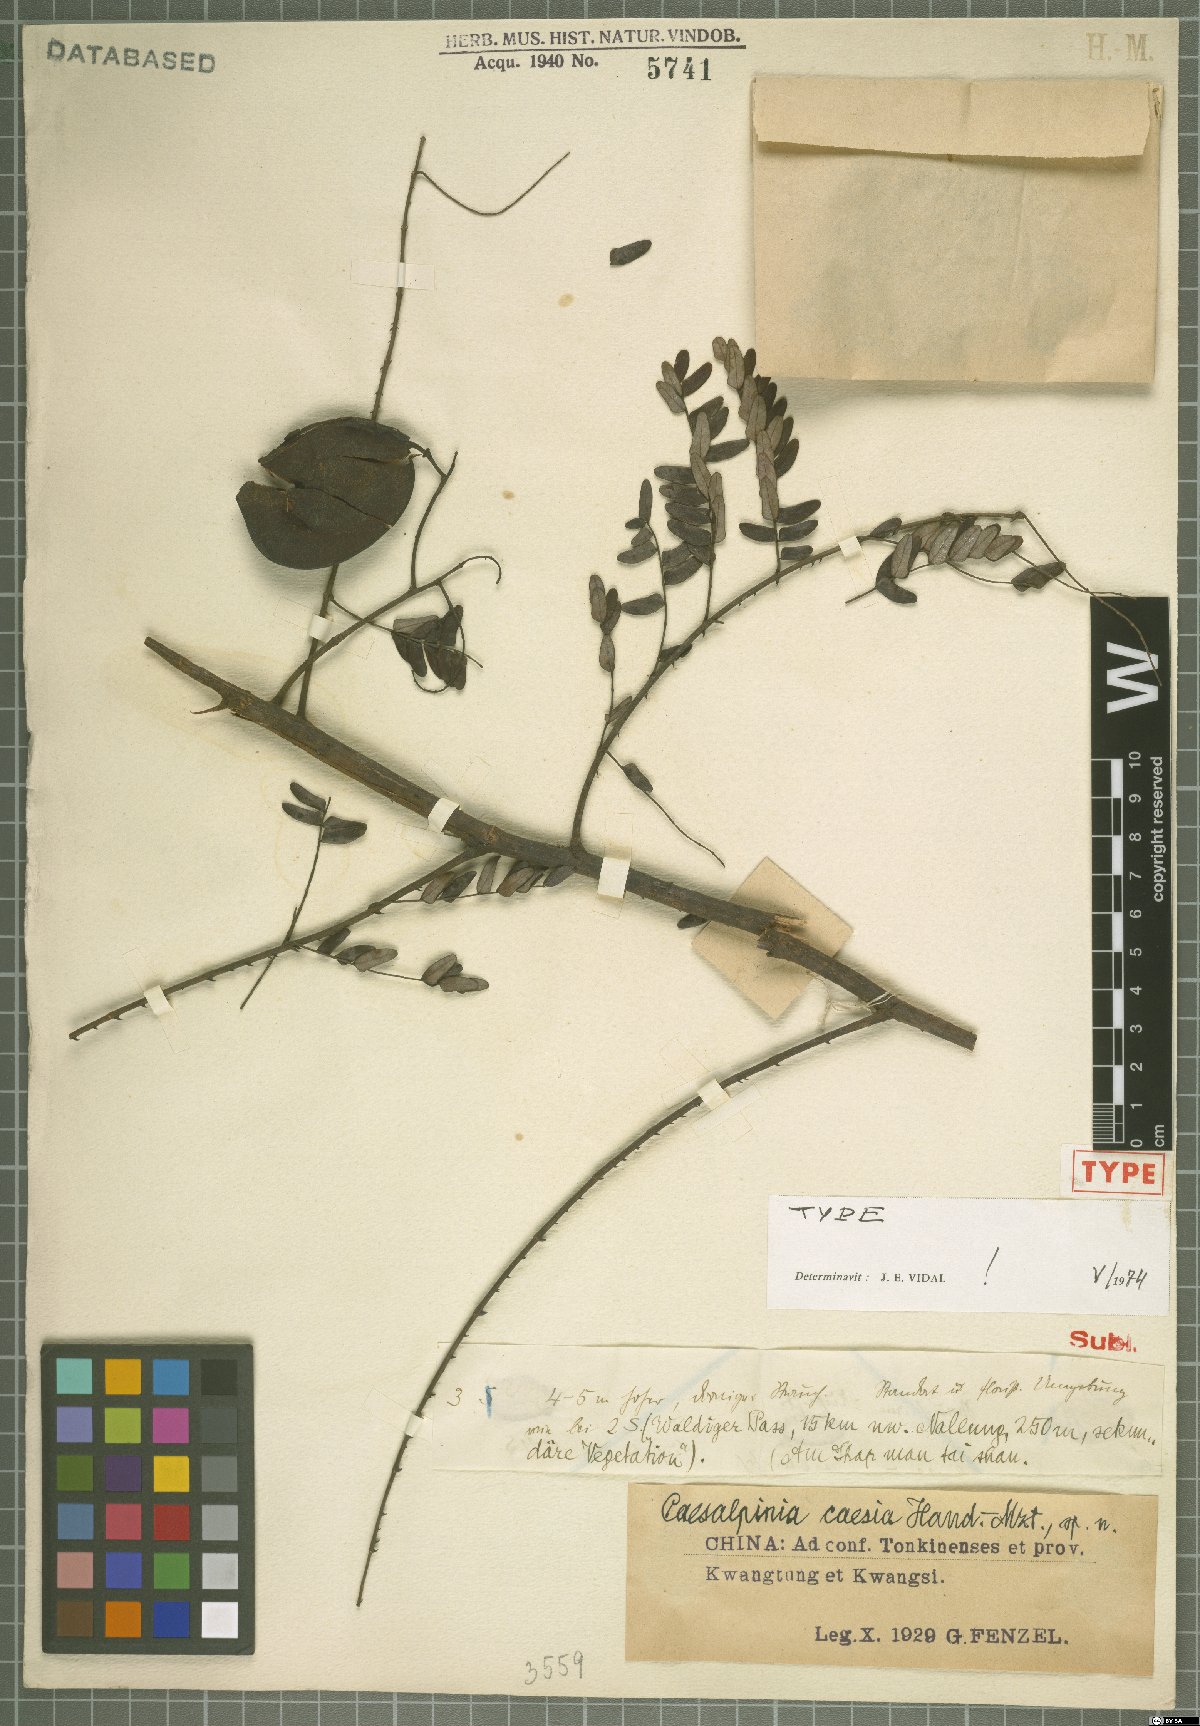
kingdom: Plantae
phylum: Tracheophyta
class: Magnoliopsida
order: Fabales
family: Fabaceae
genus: Caesalpinia
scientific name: Caesalpinia Ticanto caesia
